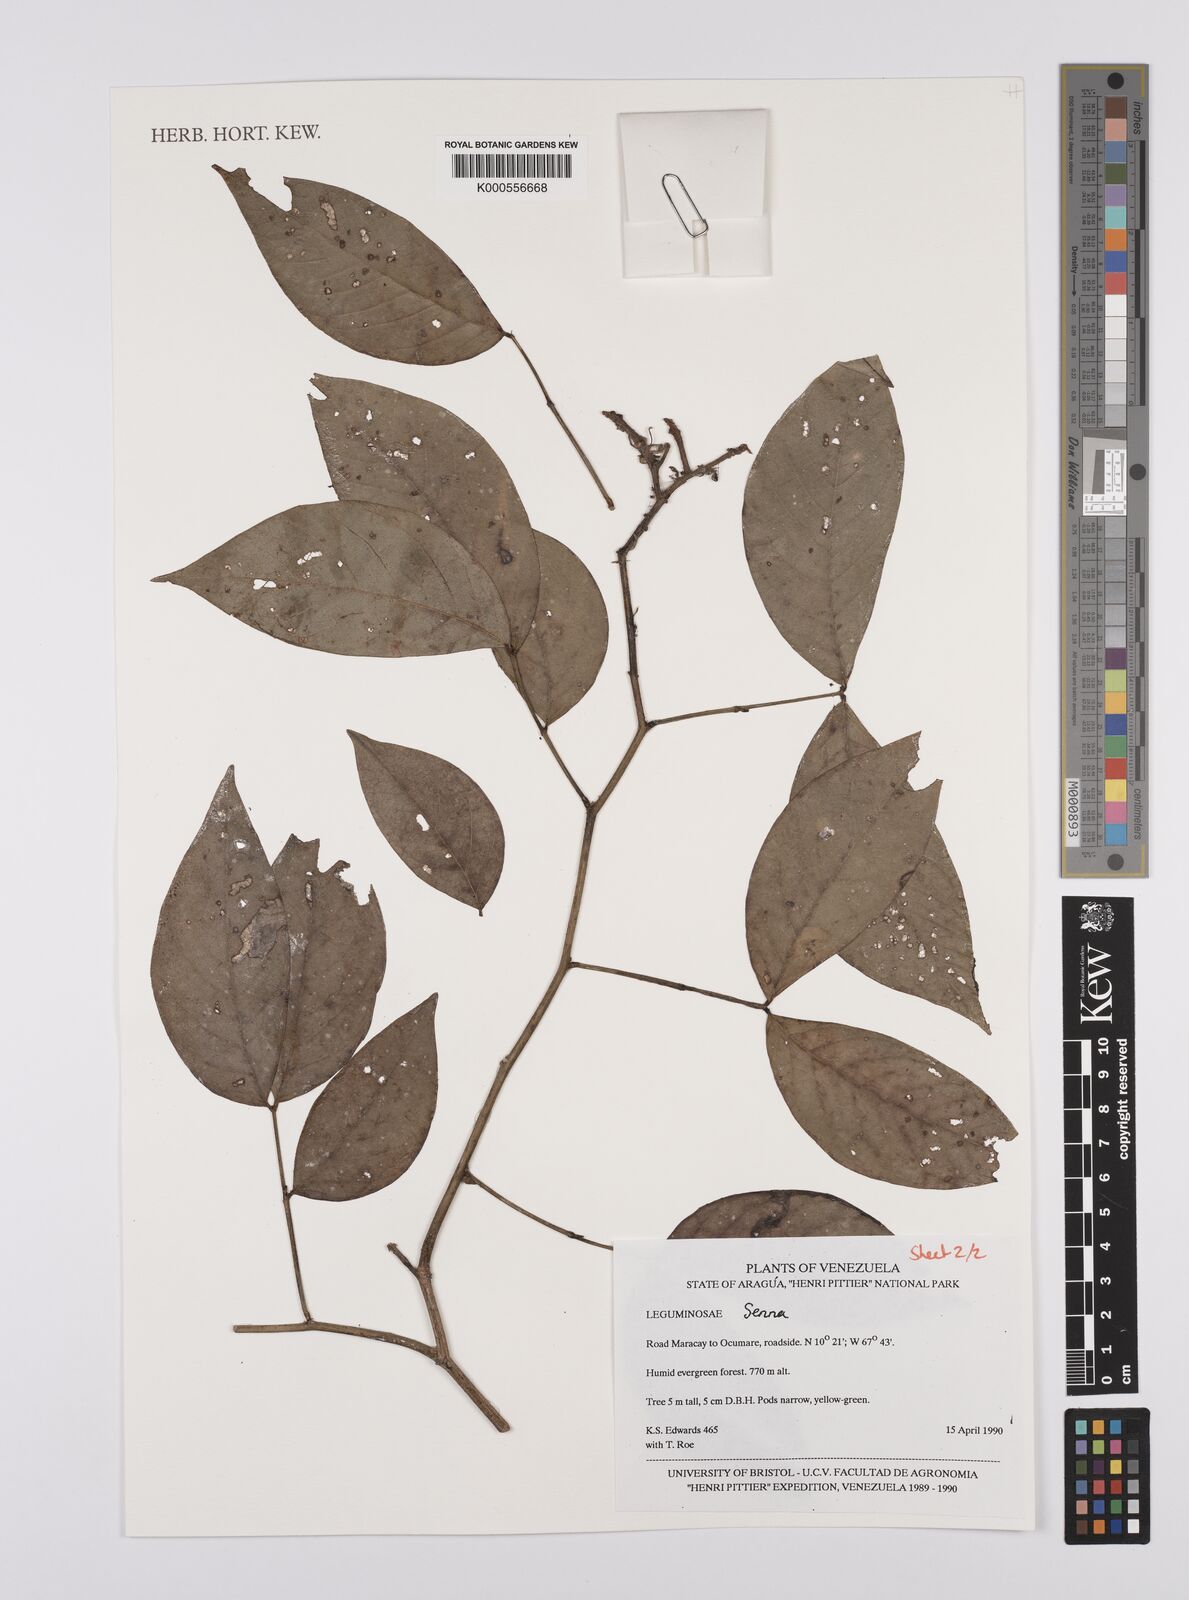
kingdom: Plantae
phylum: Tracheophyta
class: Magnoliopsida
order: Fabales
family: Fabaceae
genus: Senna
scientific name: Senna
